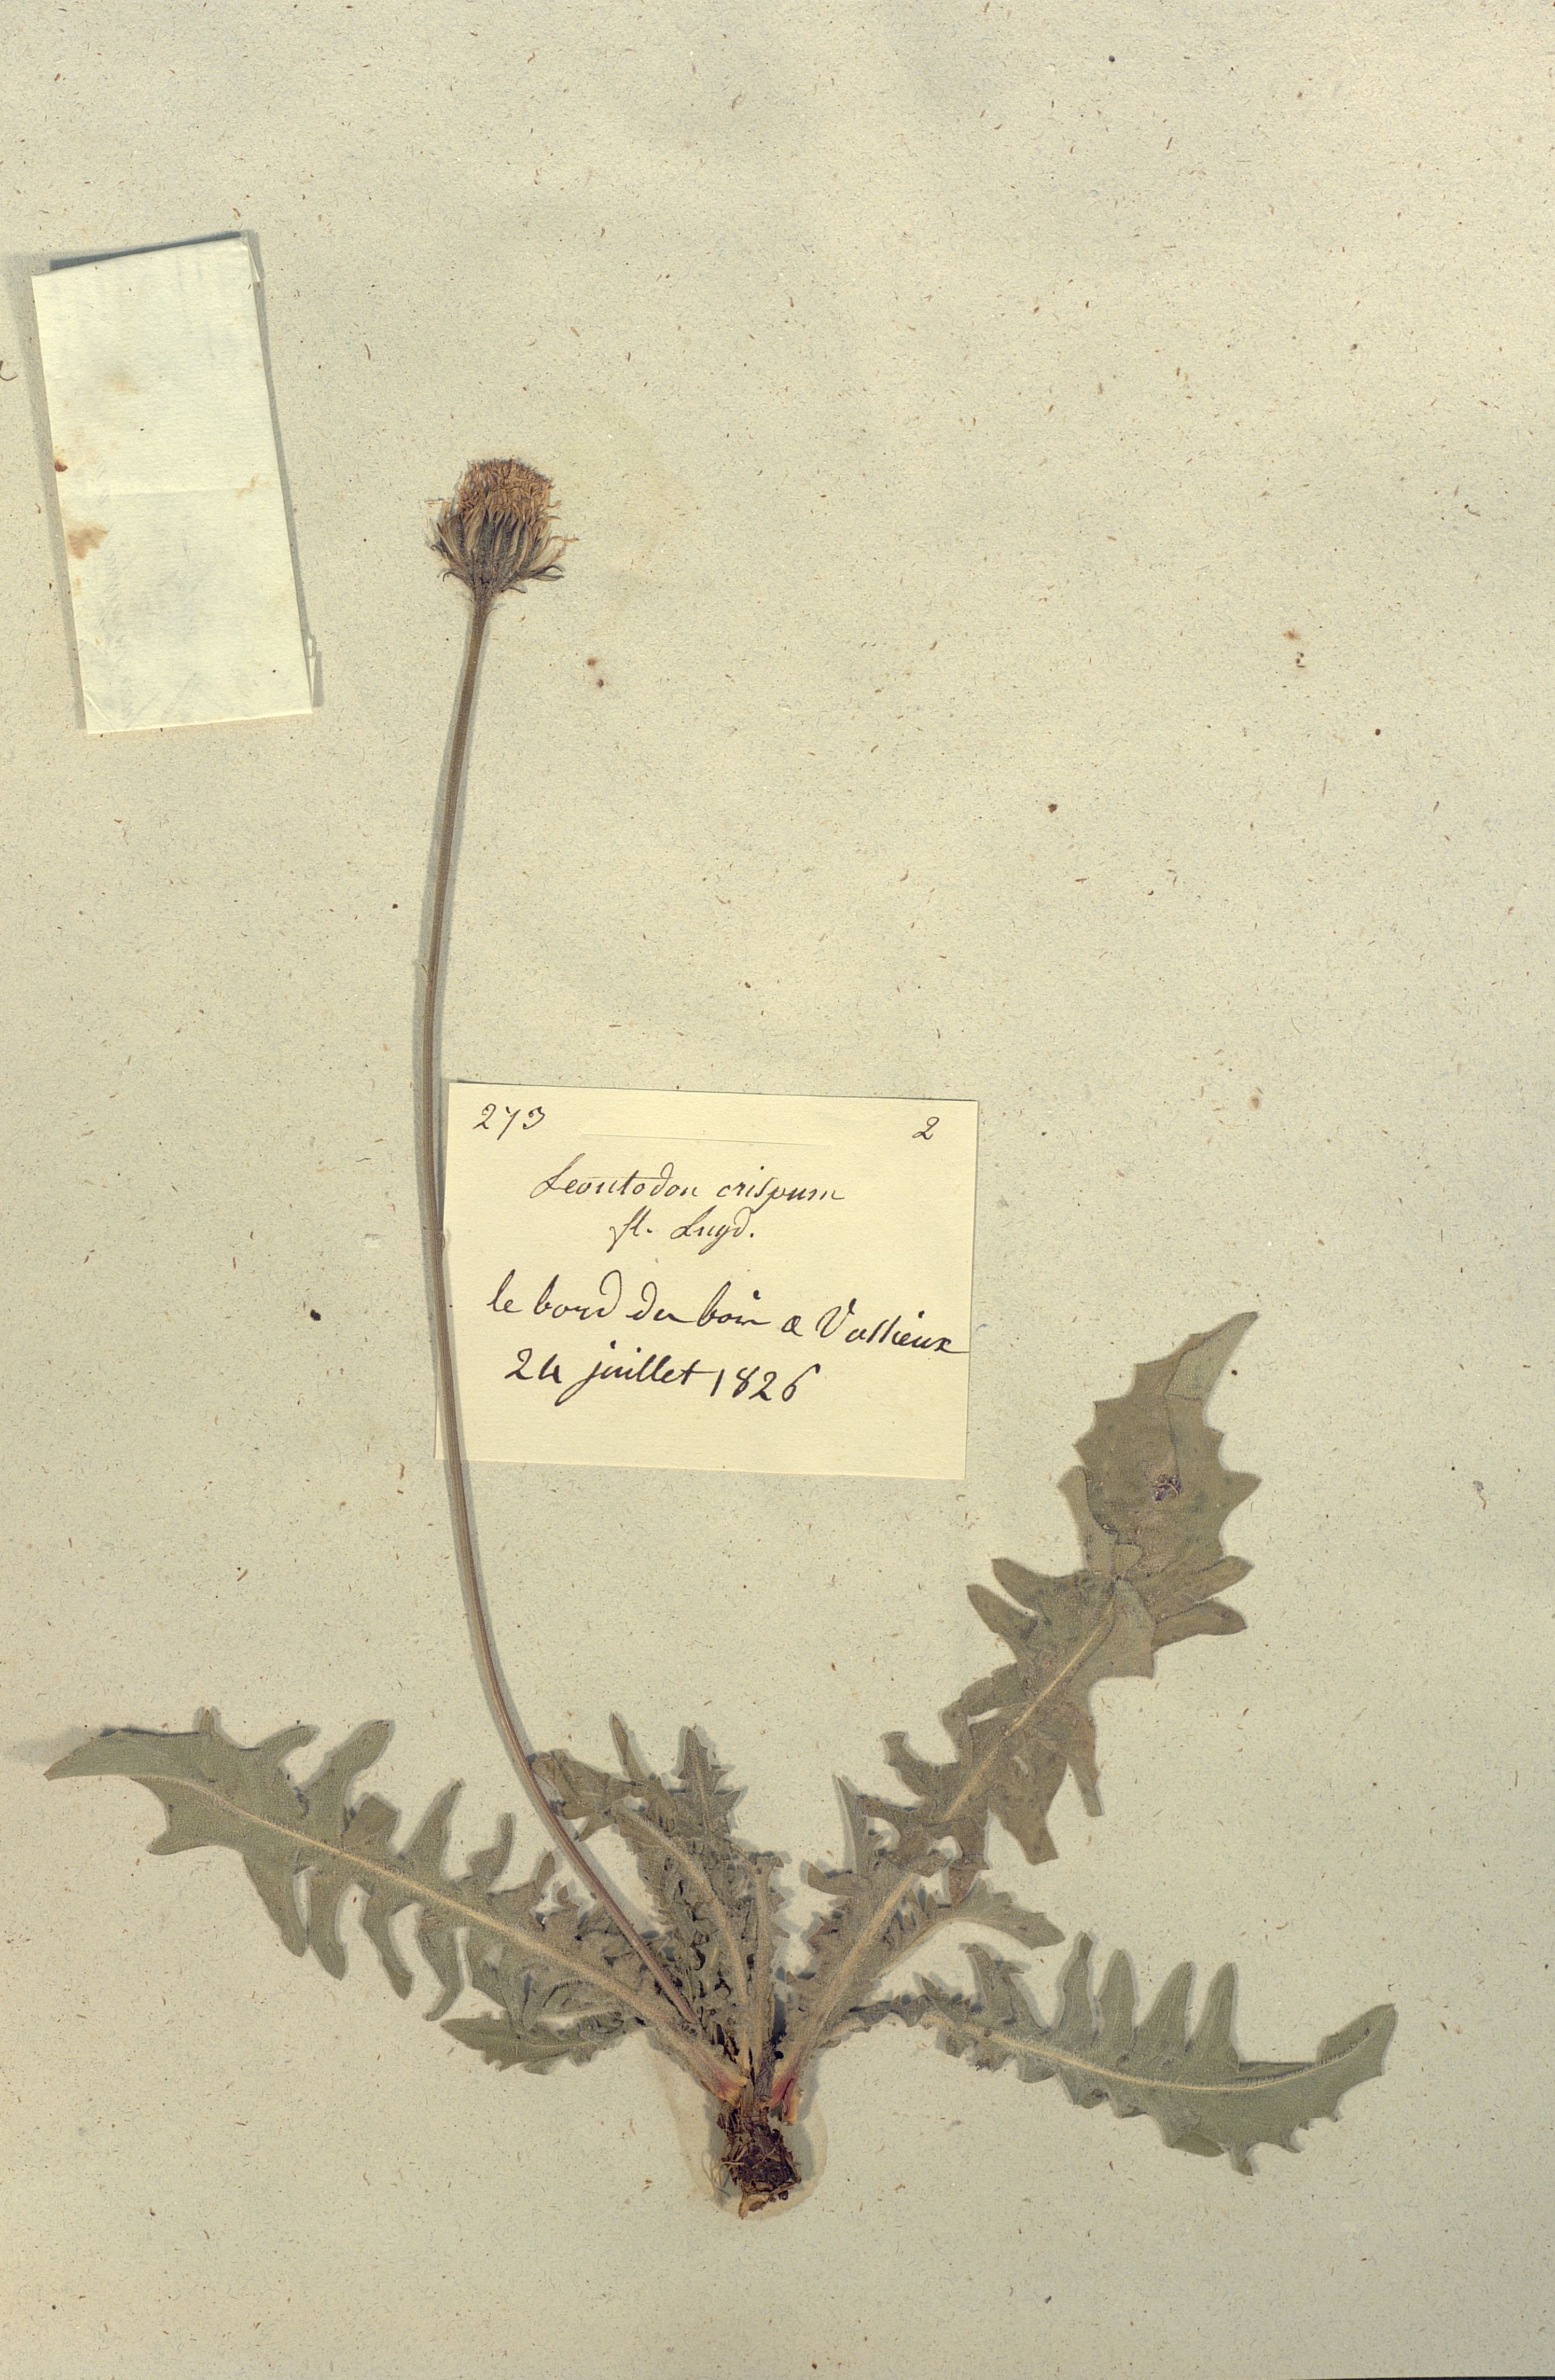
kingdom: Plantae
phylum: Tracheophyta
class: Magnoliopsida
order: Asterales
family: Asteraceae
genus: Leontodon
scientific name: Leontodon crispus
